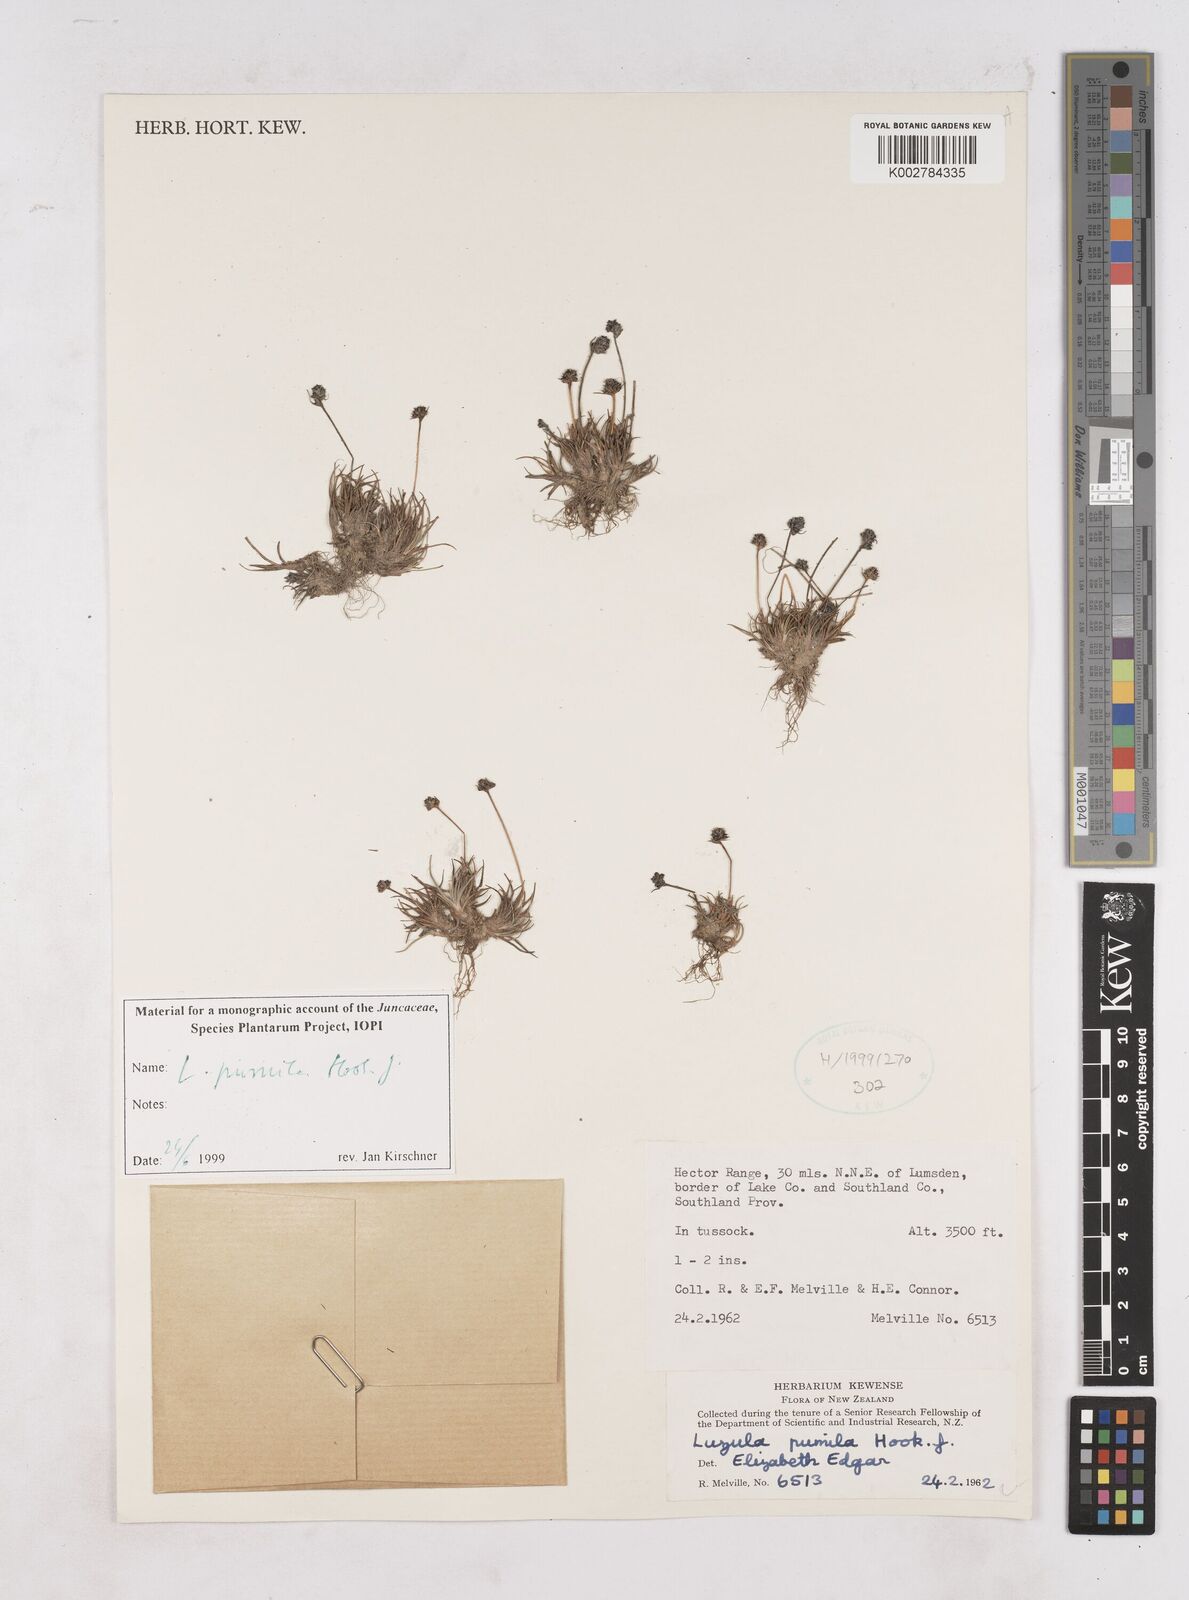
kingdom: Plantae
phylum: Tracheophyta
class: Liliopsida
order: Poales
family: Juncaceae
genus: Luzula
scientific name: Luzula pumila
